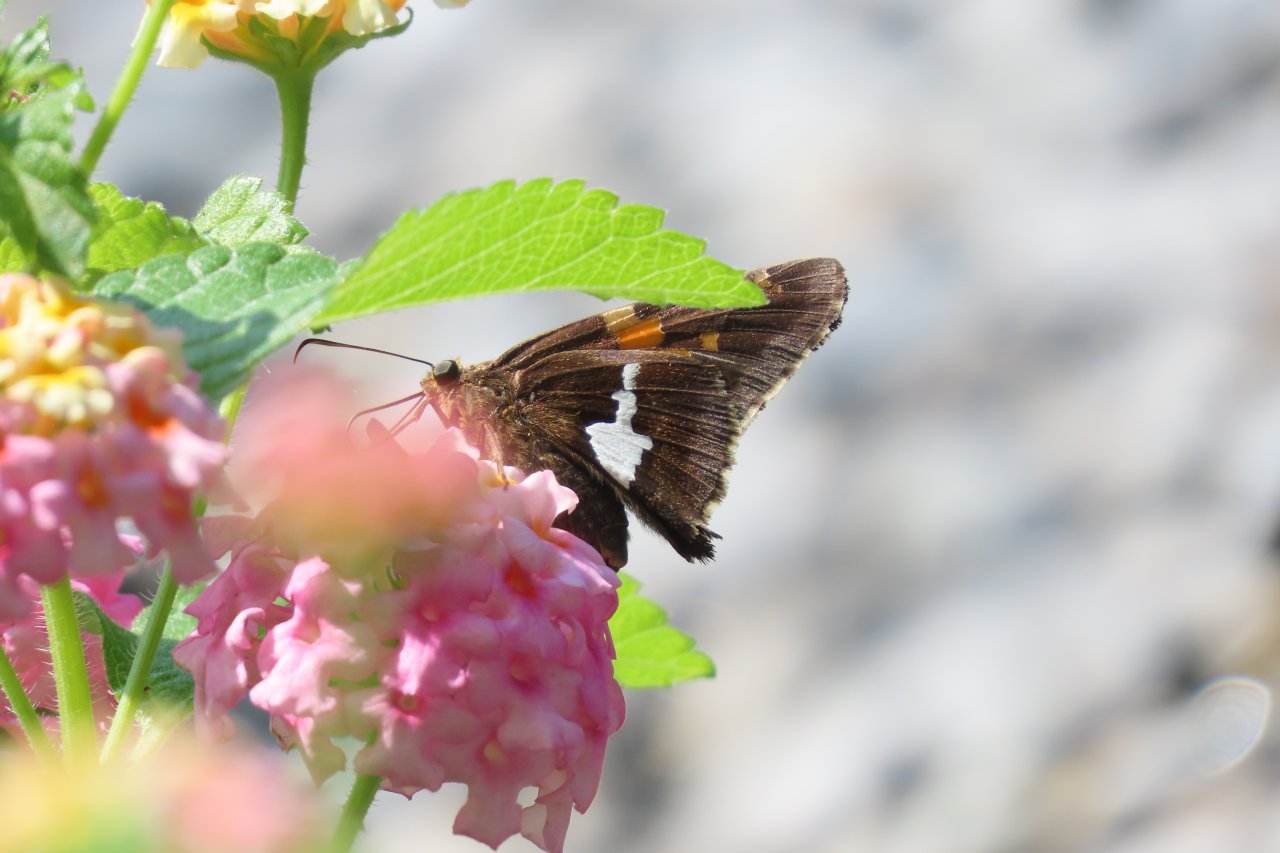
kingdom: Animalia
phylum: Arthropoda
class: Insecta
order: Lepidoptera
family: Hesperiidae
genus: Epargyreus
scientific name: Epargyreus clarus
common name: Silver-spotted Skipper
